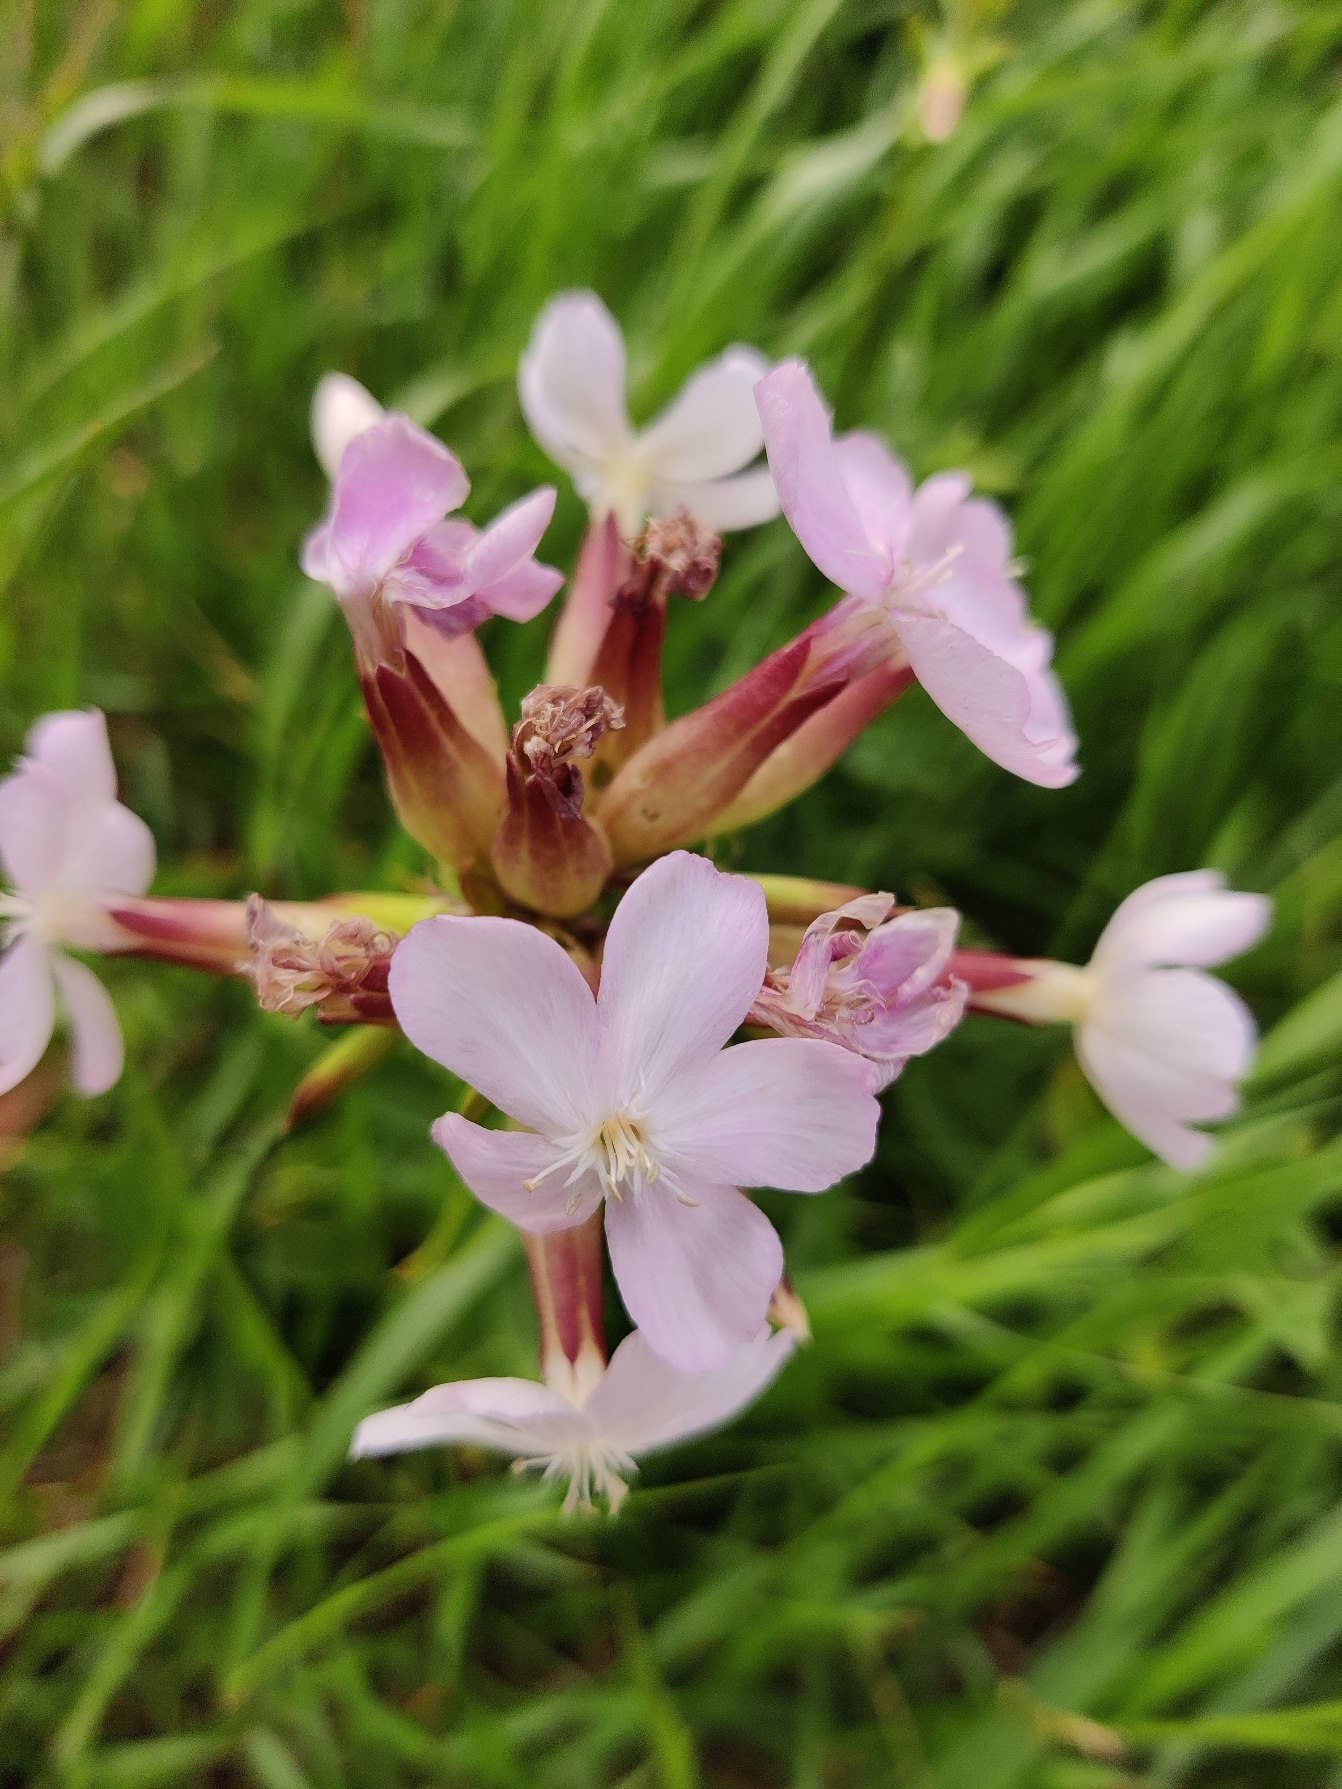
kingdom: Plantae
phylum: Tracheophyta
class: Magnoliopsida
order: Caryophyllales
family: Caryophyllaceae
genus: Saponaria
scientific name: Saponaria officinalis
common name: Sæbeurt
